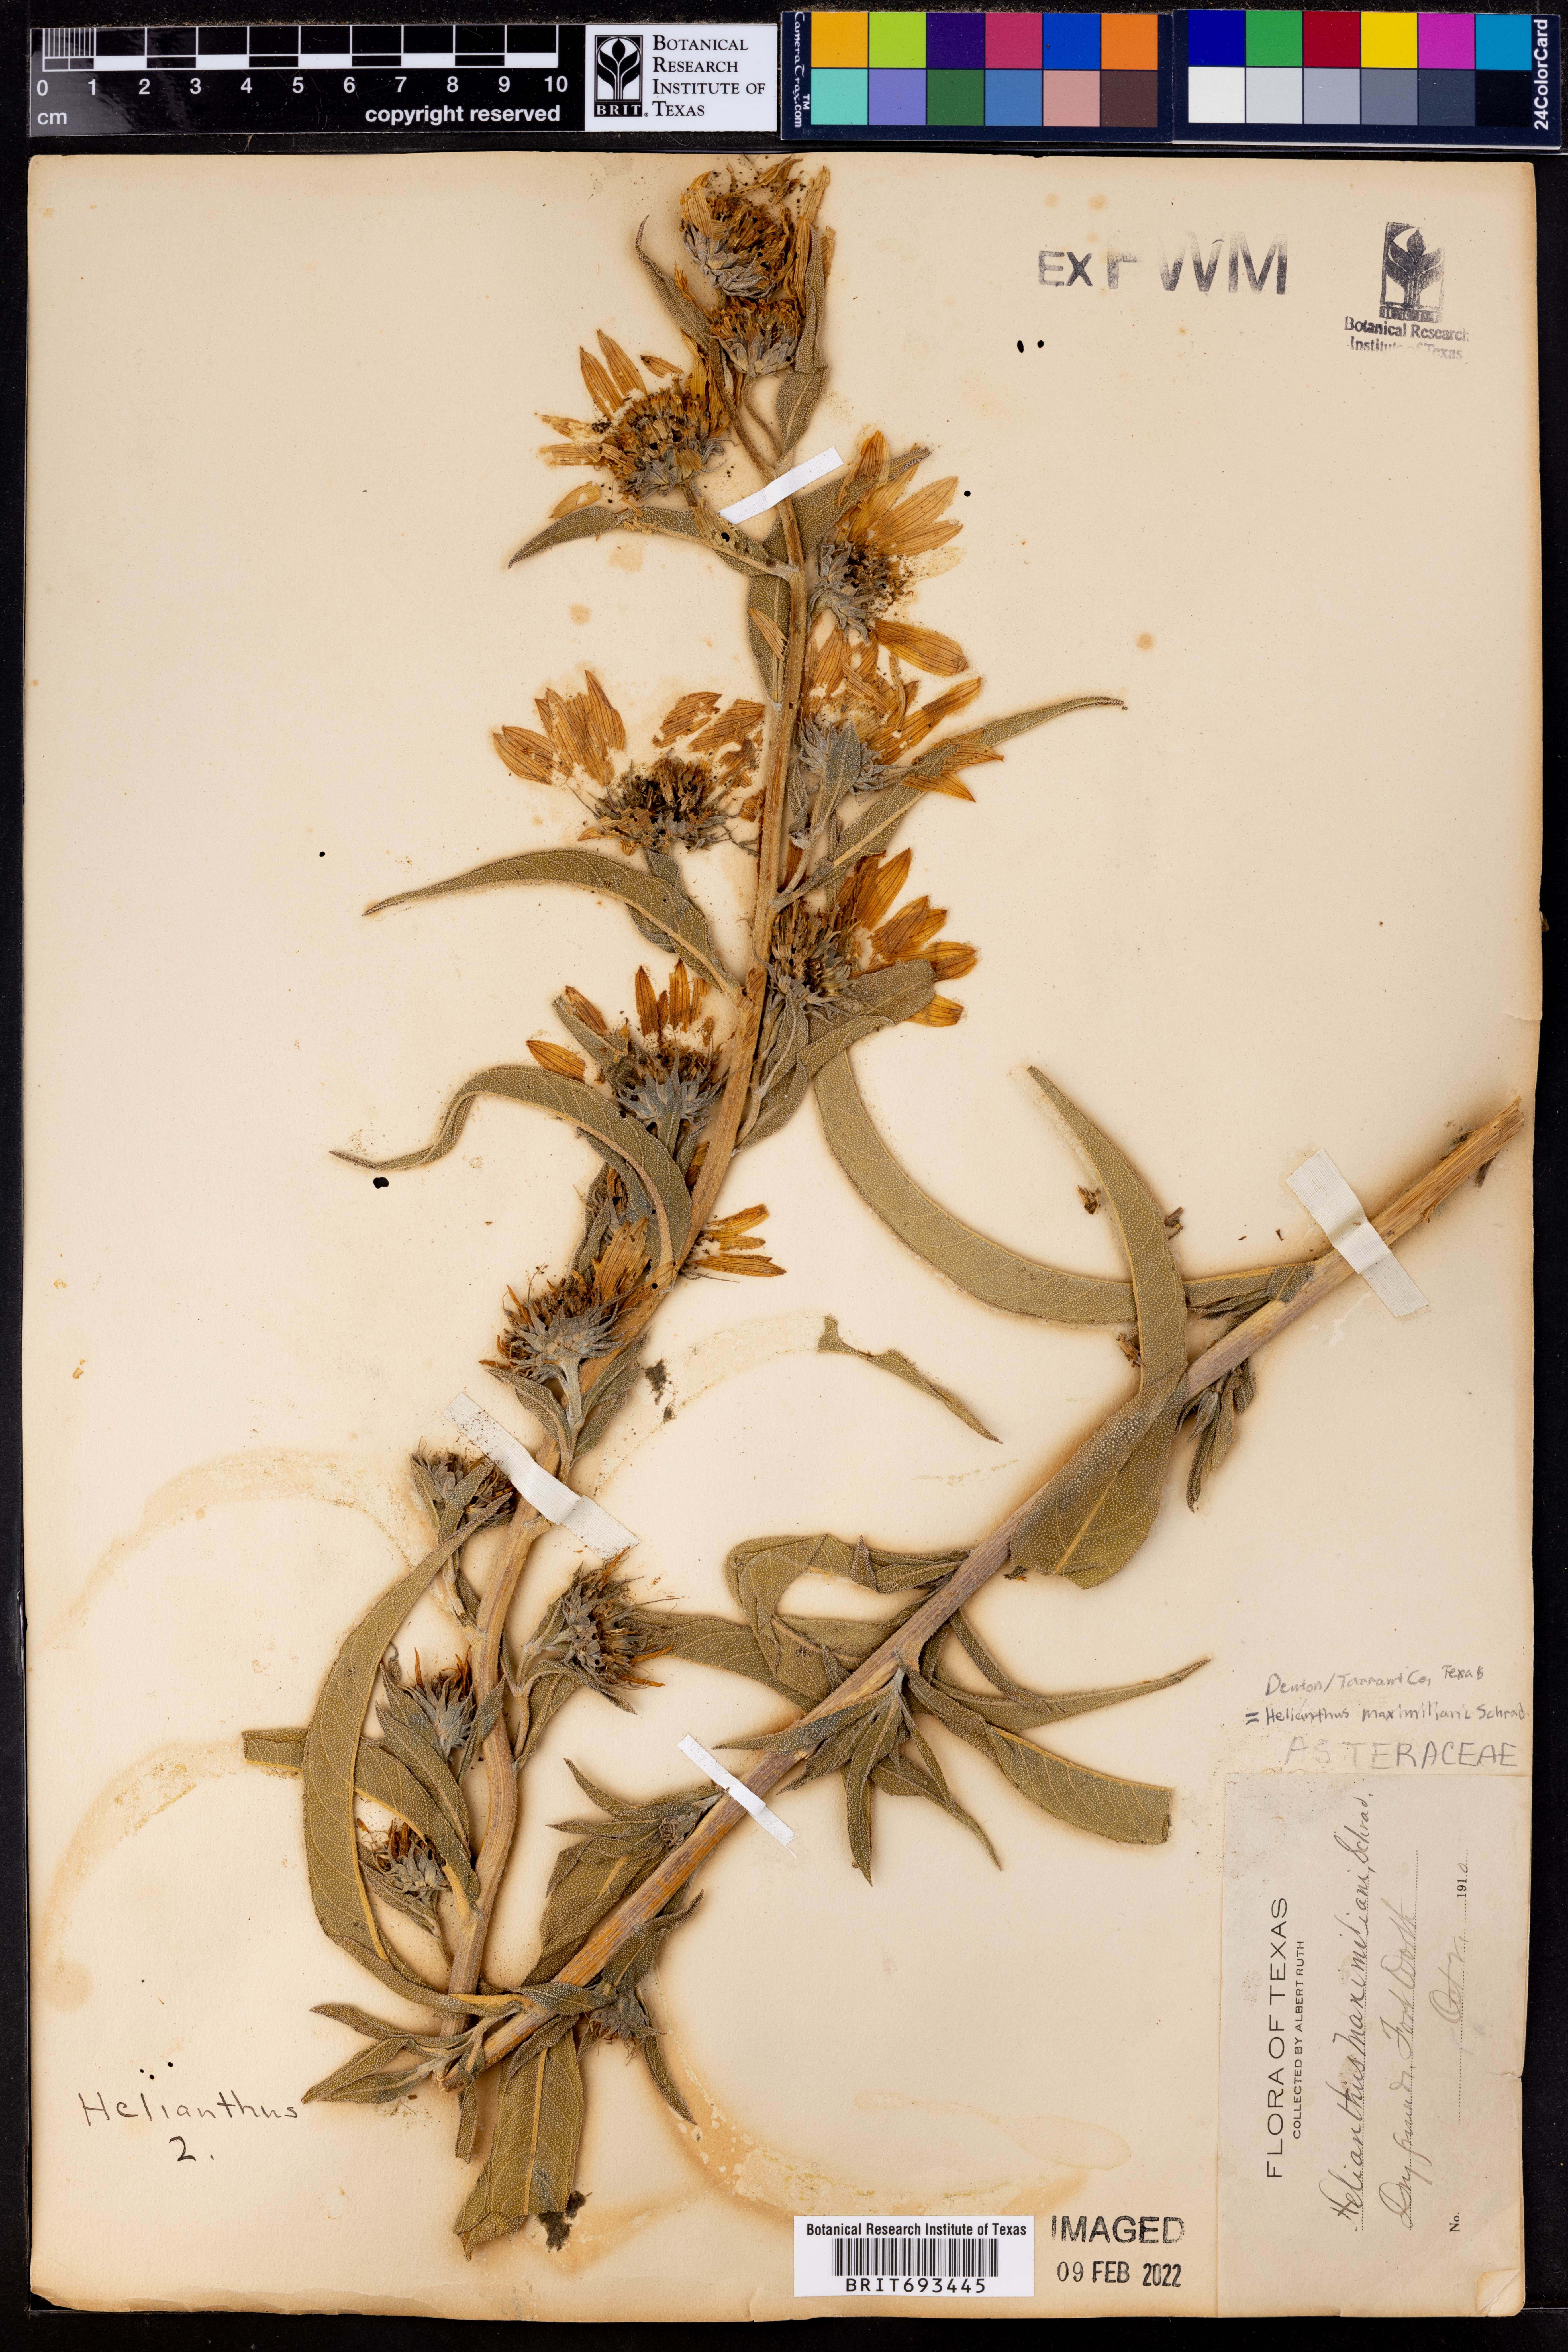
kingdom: Plantae
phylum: Tracheophyta
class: Magnoliopsida
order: Asterales
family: Asteraceae
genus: Helianthus
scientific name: Helianthus maximiliani
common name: Maximilian's sunflower
